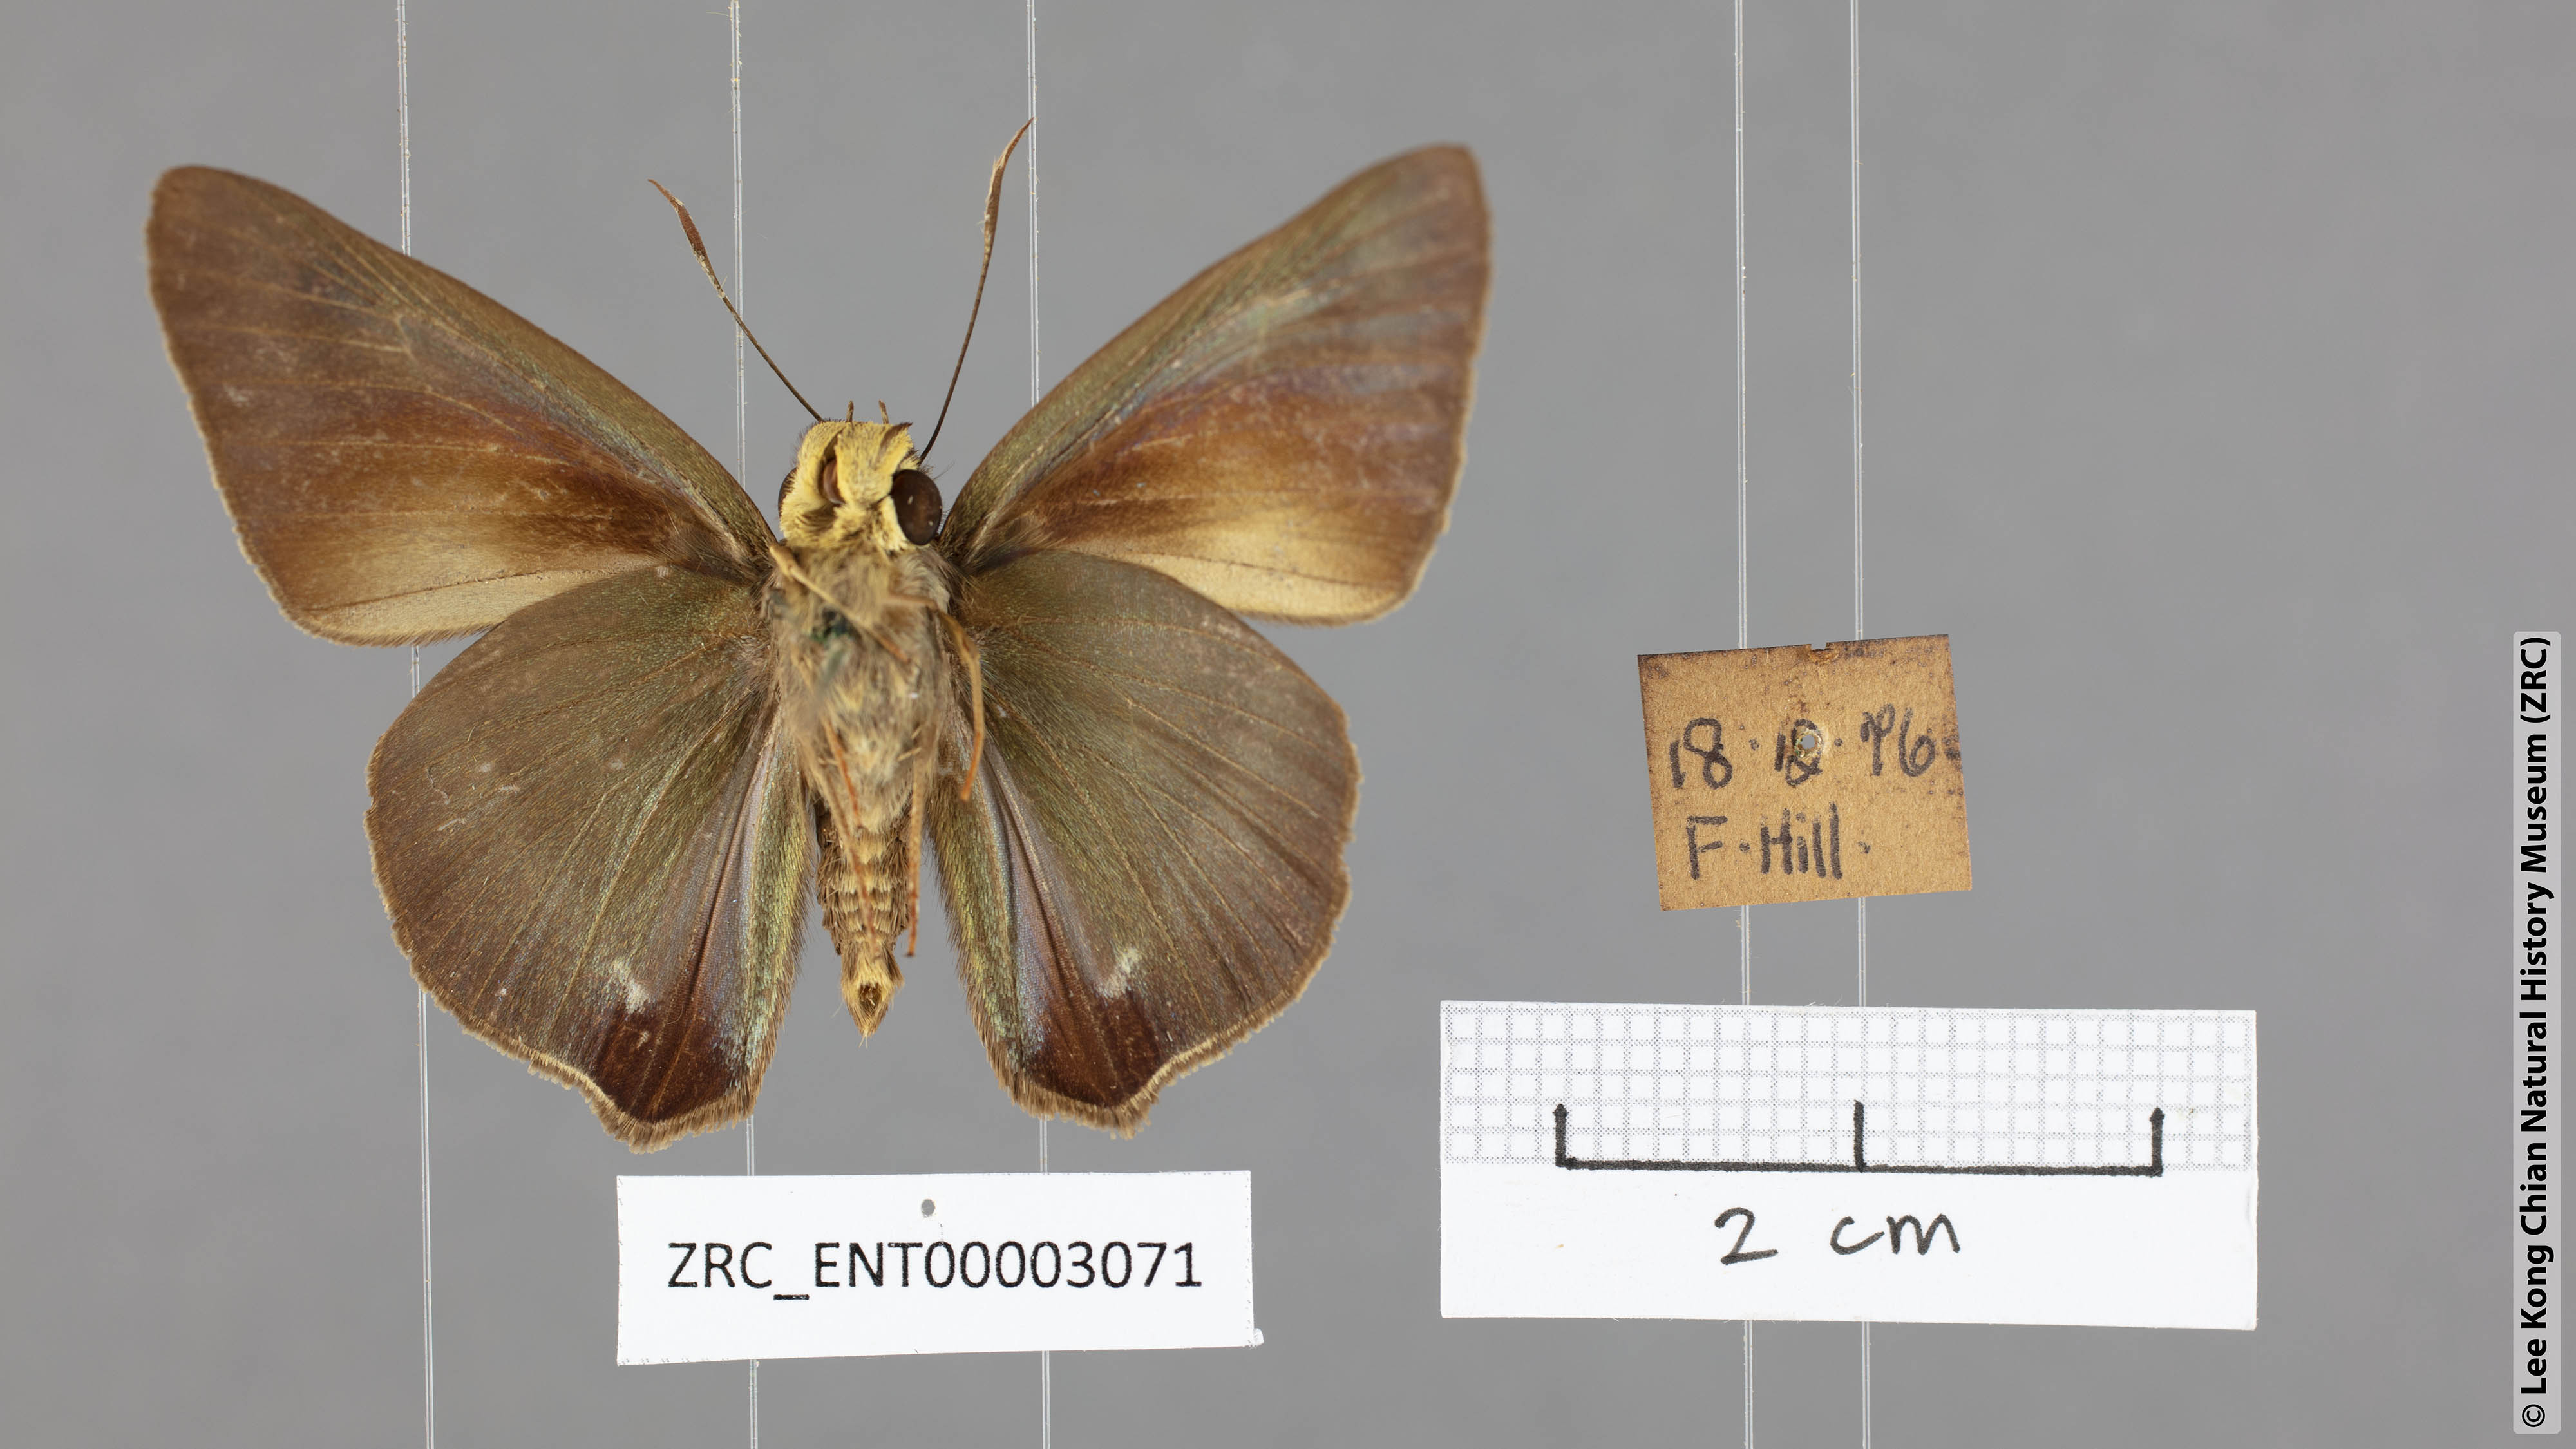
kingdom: Animalia
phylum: Arthropoda
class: Insecta
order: Lepidoptera
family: Hesperiidae
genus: Hasora
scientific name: Hasora salanga
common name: Black-tailed awl
